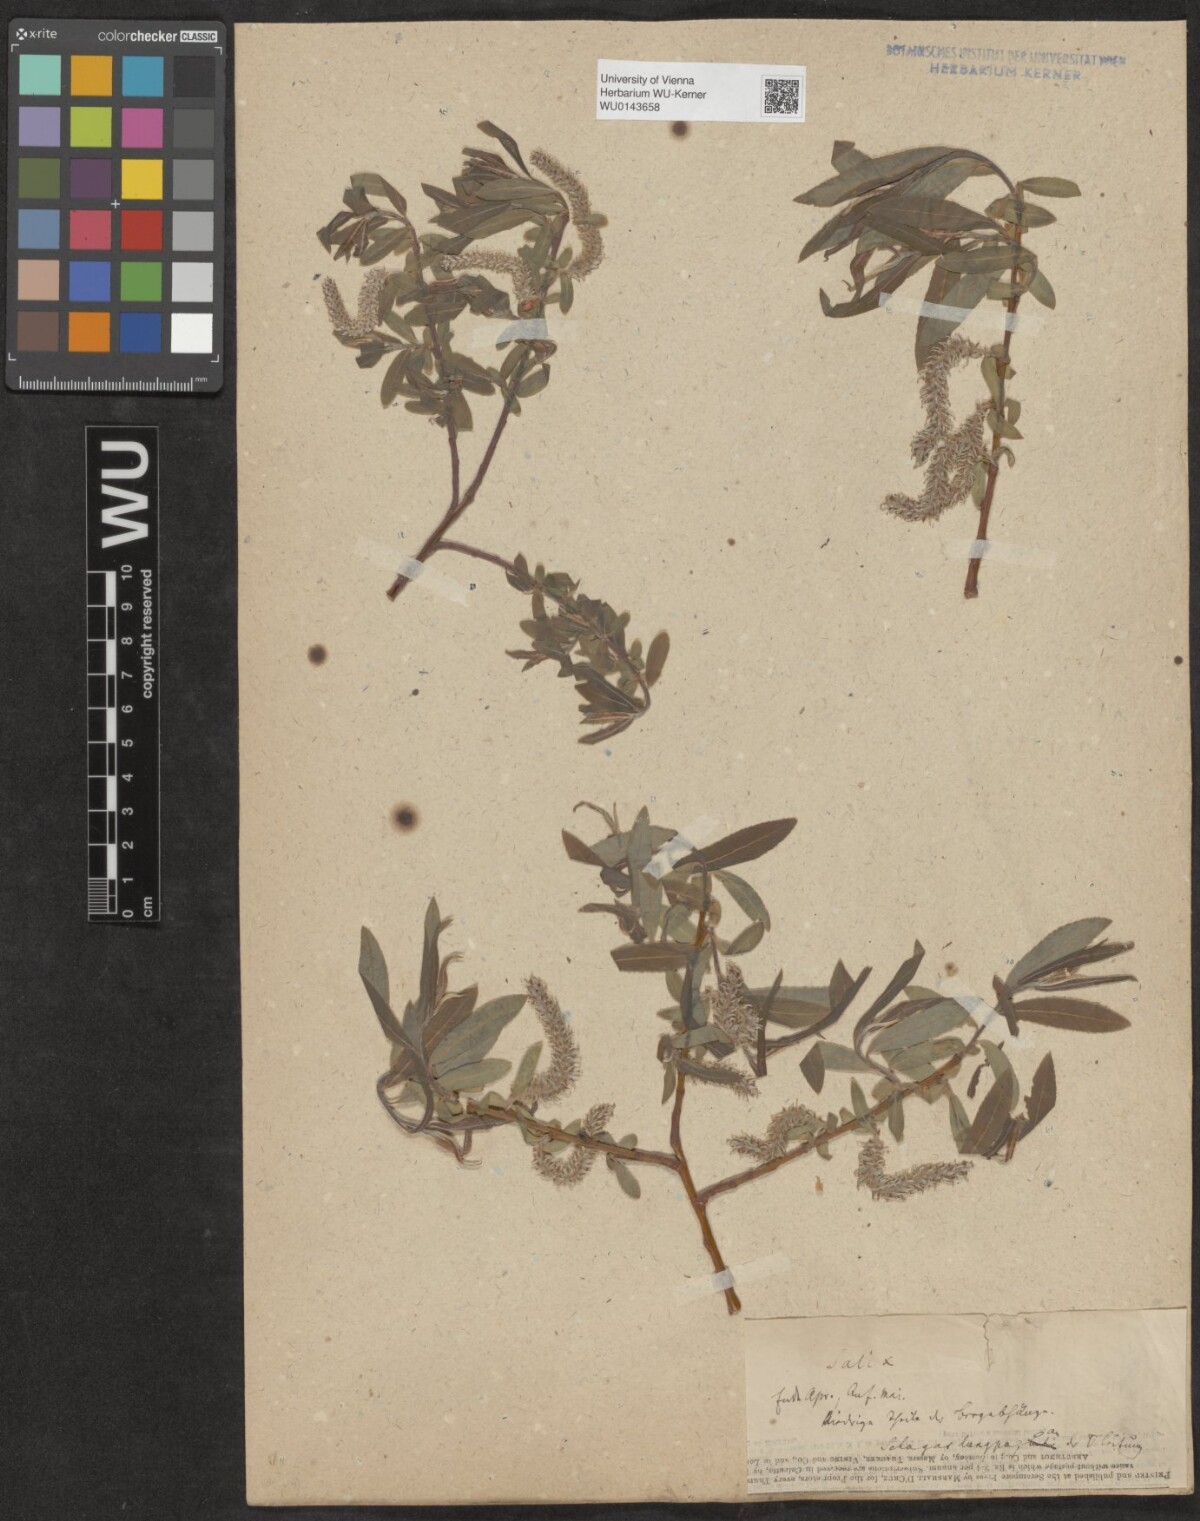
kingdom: Plantae
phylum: Tracheophyta
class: Magnoliopsida
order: Malpighiales
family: Salicaceae
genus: Salix
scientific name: Salix
